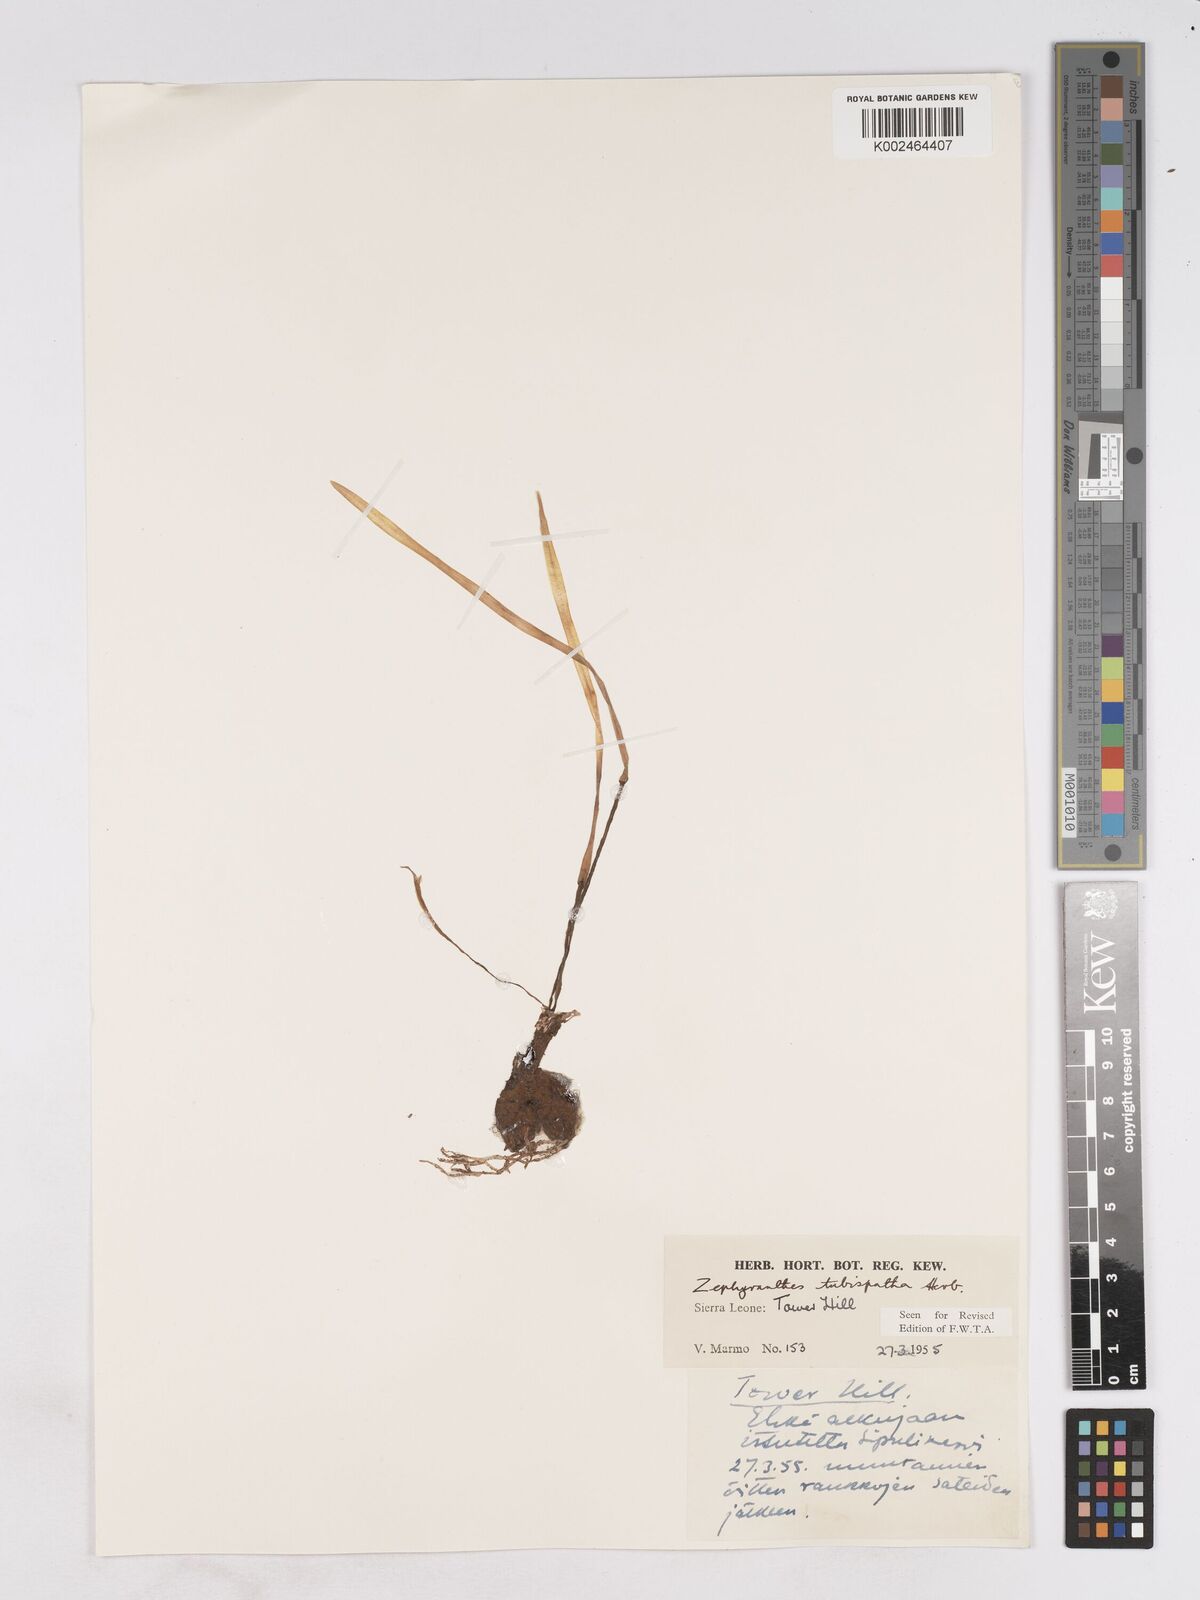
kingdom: Plantae
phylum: Tracheophyta
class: Liliopsida
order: Asparagales
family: Amaryllidaceae
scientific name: Amaryllidaceae
